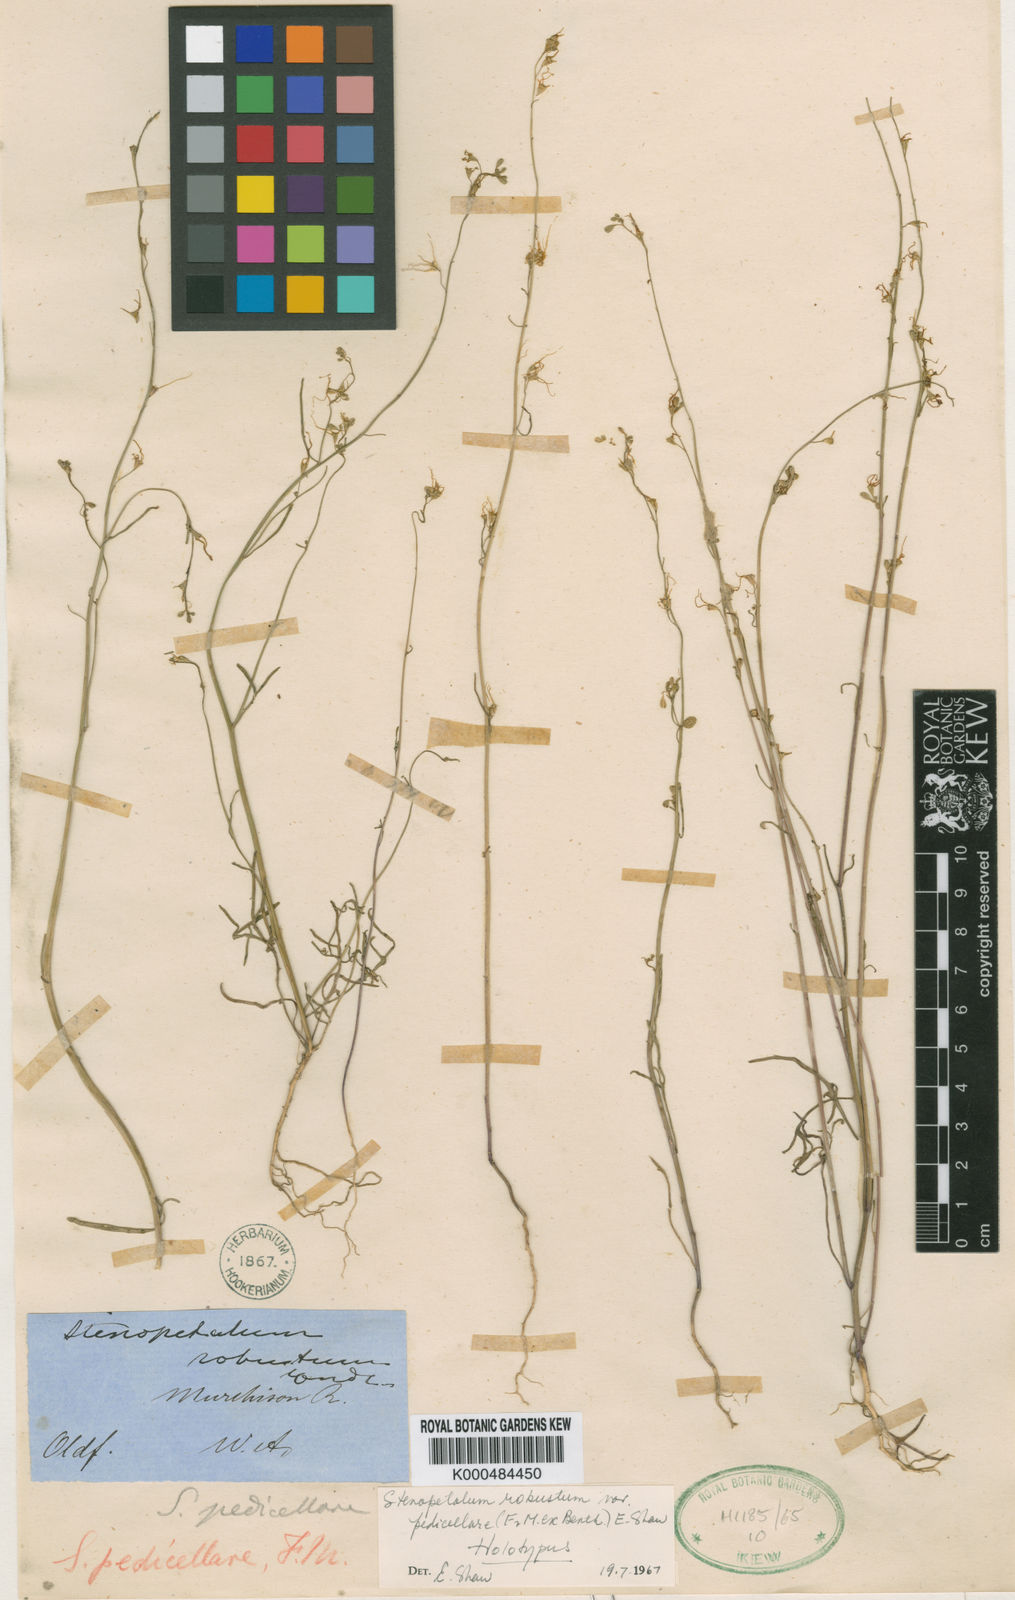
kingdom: Plantae
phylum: Tracheophyta
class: Magnoliopsida
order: Brassicales
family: Brassicaceae
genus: Stenopetalum
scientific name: Stenopetalum pedicellare
